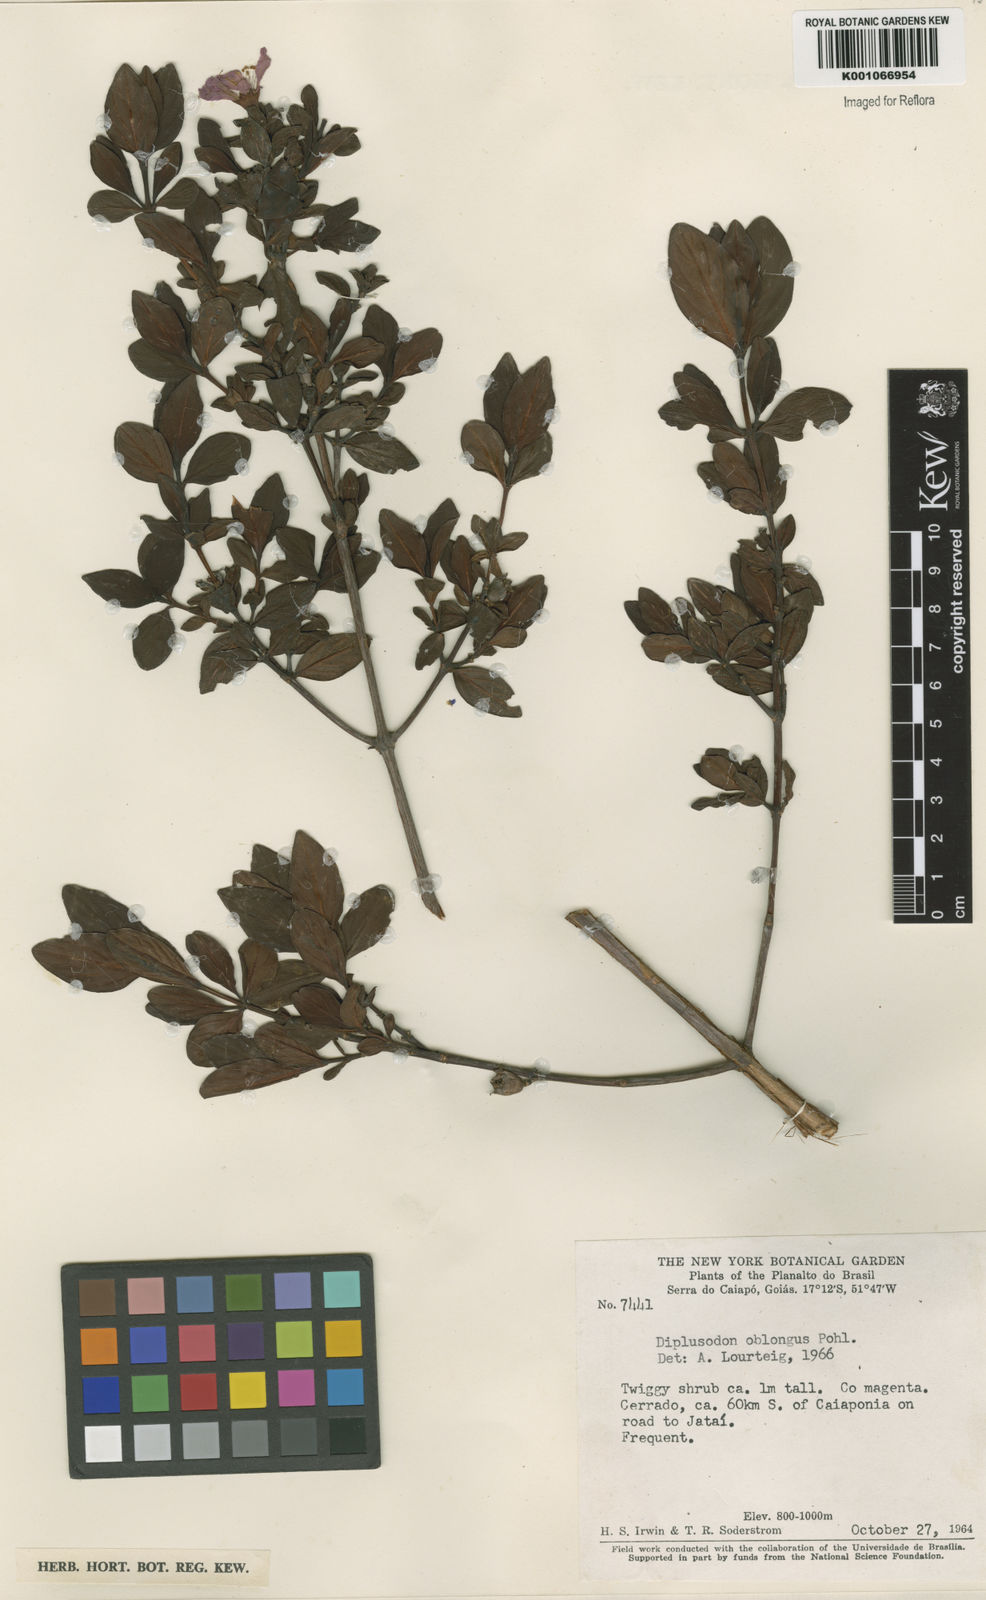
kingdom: Plantae
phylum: Tracheophyta
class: Magnoliopsida
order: Myrtales
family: Lythraceae
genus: Diplusodon
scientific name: Diplusodon oblongus
